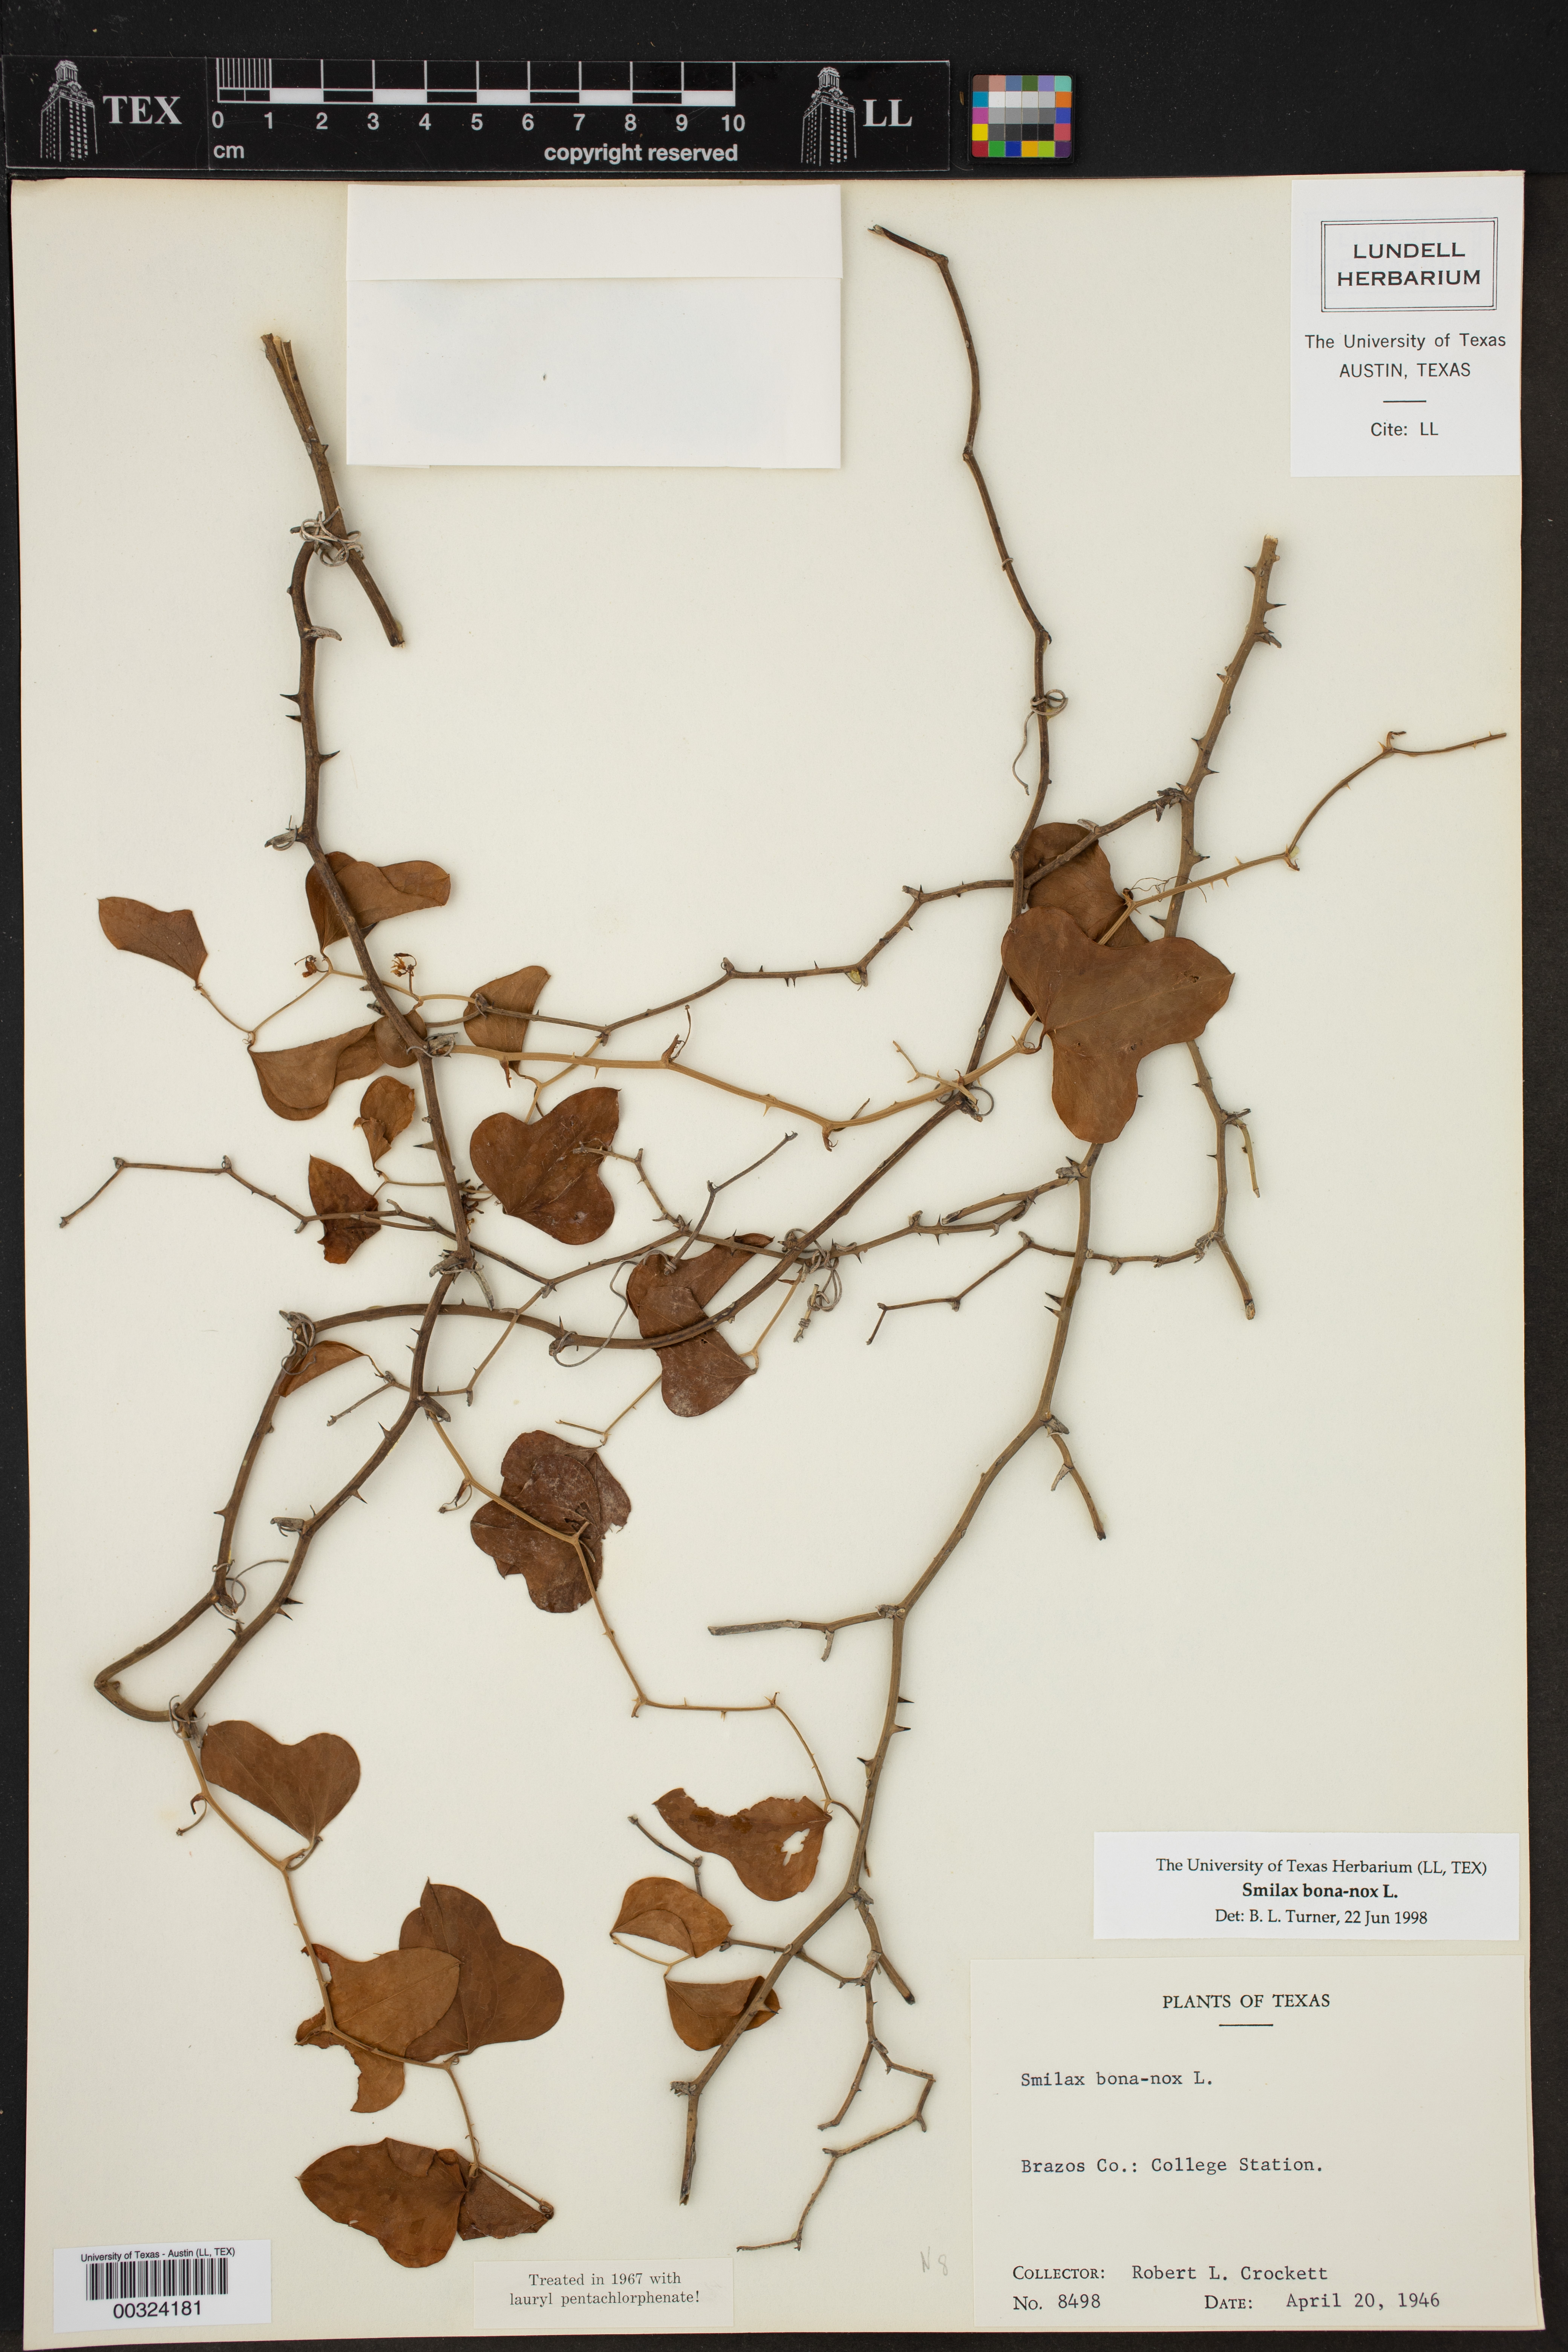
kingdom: Plantae
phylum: Tracheophyta
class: Liliopsida
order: Liliales
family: Smilacaceae
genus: Smilax
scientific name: Smilax bona-nox
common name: Catbrier
